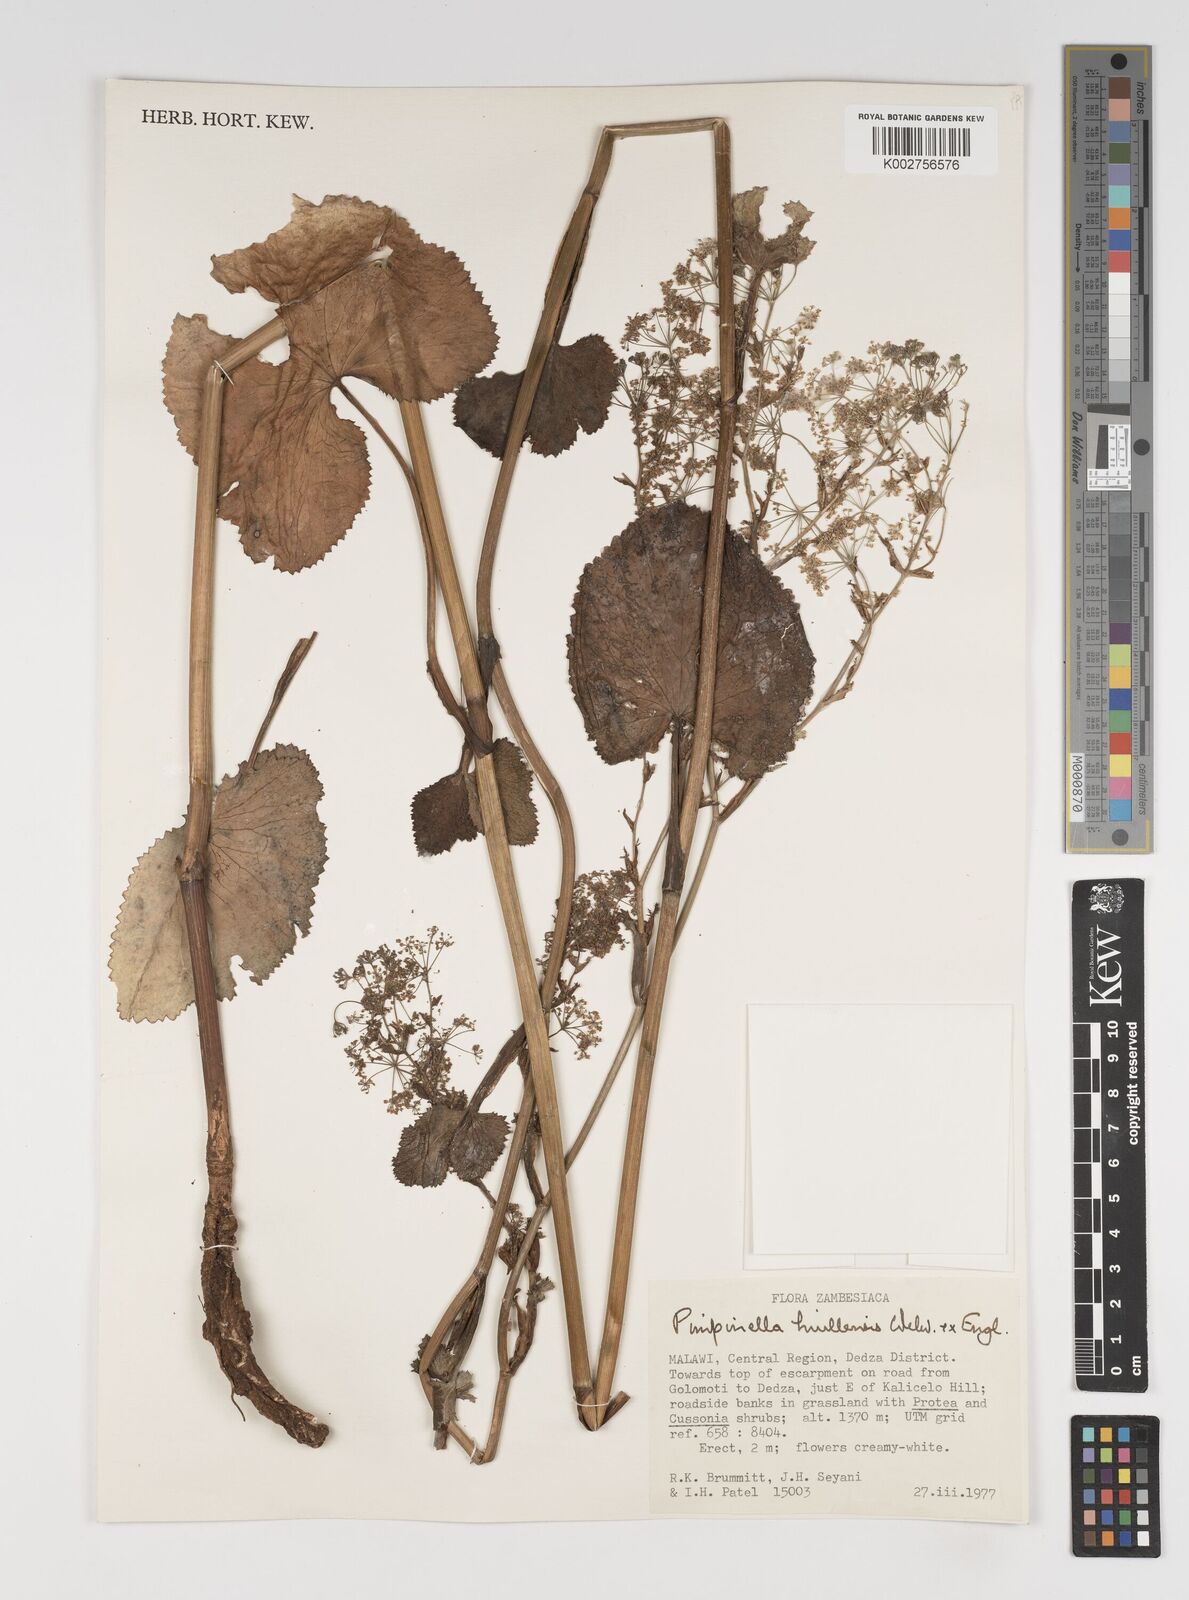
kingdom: Plantae
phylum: Tracheophyta
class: Magnoliopsida
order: Apiales
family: Apiaceae
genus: Pimpinella
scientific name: Pimpinella huillensis
